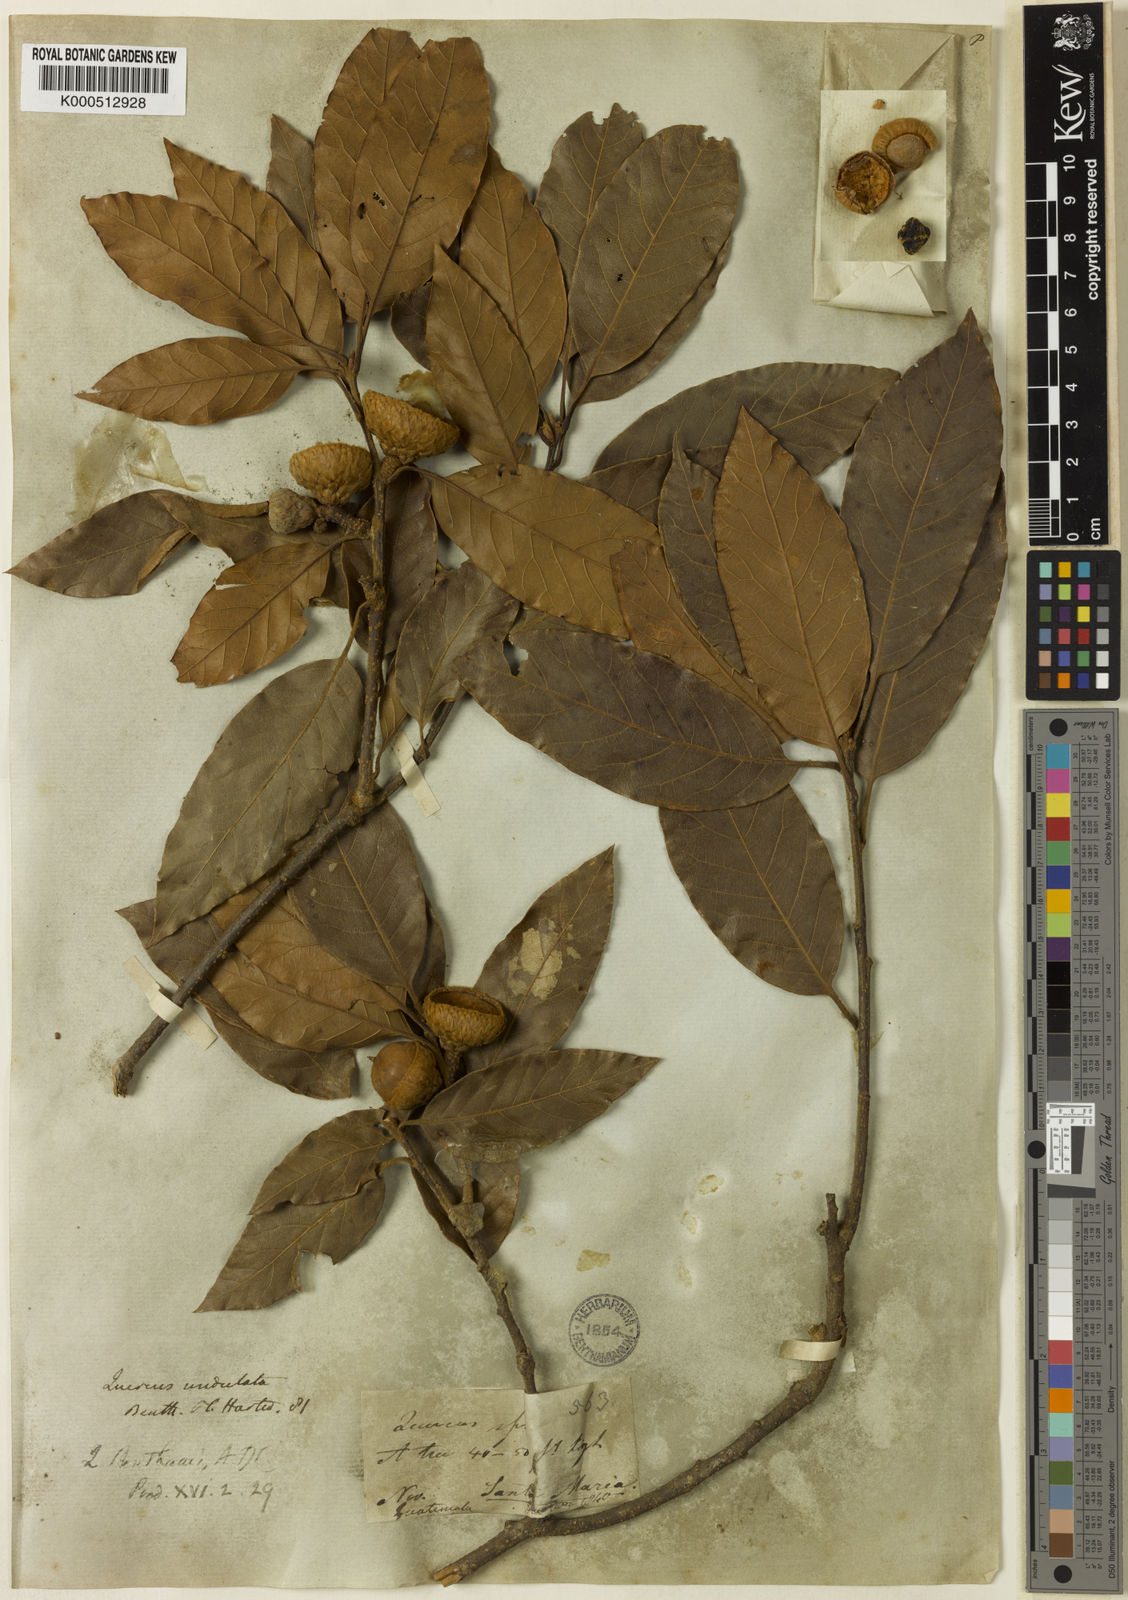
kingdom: Plantae
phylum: Tracheophyta
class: Magnoliopsida
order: Fagales
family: Fagaceae
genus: Quercus
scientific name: Quercus benthamii
